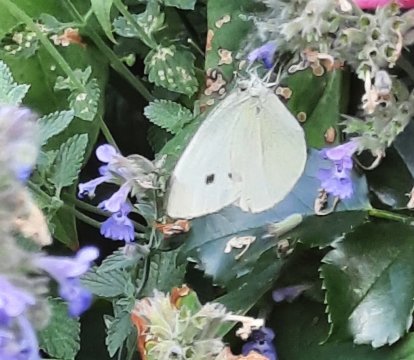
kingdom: Animalia
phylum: Arthropoda
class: Insecta
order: Lepidoptera
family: Pieridae
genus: Pieris
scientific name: Pieris rapae
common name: Cabbage White
